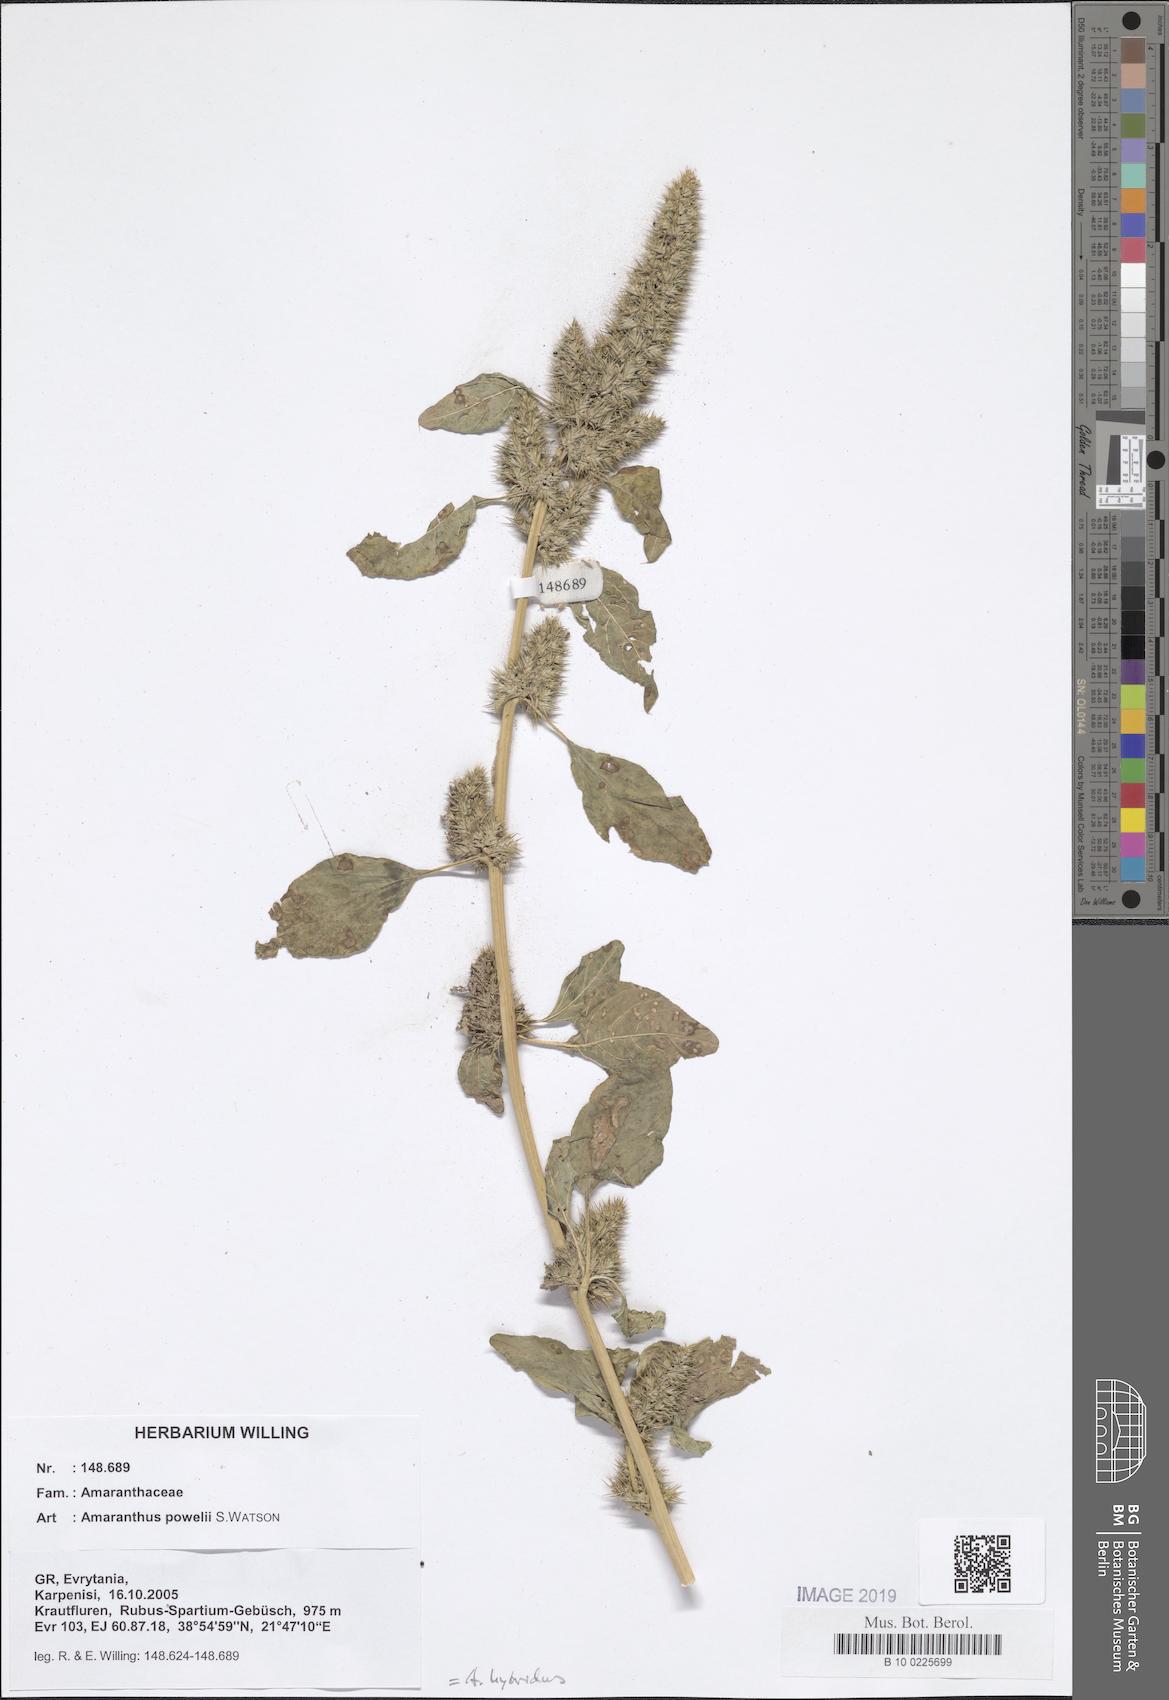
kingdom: Plantae
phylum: Tracheophyta
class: Magnoliopsida
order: Caryophyllales
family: Amaranthaceae
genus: Amaranthus
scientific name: Amaranthus powellii
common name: Powell's amaranth
